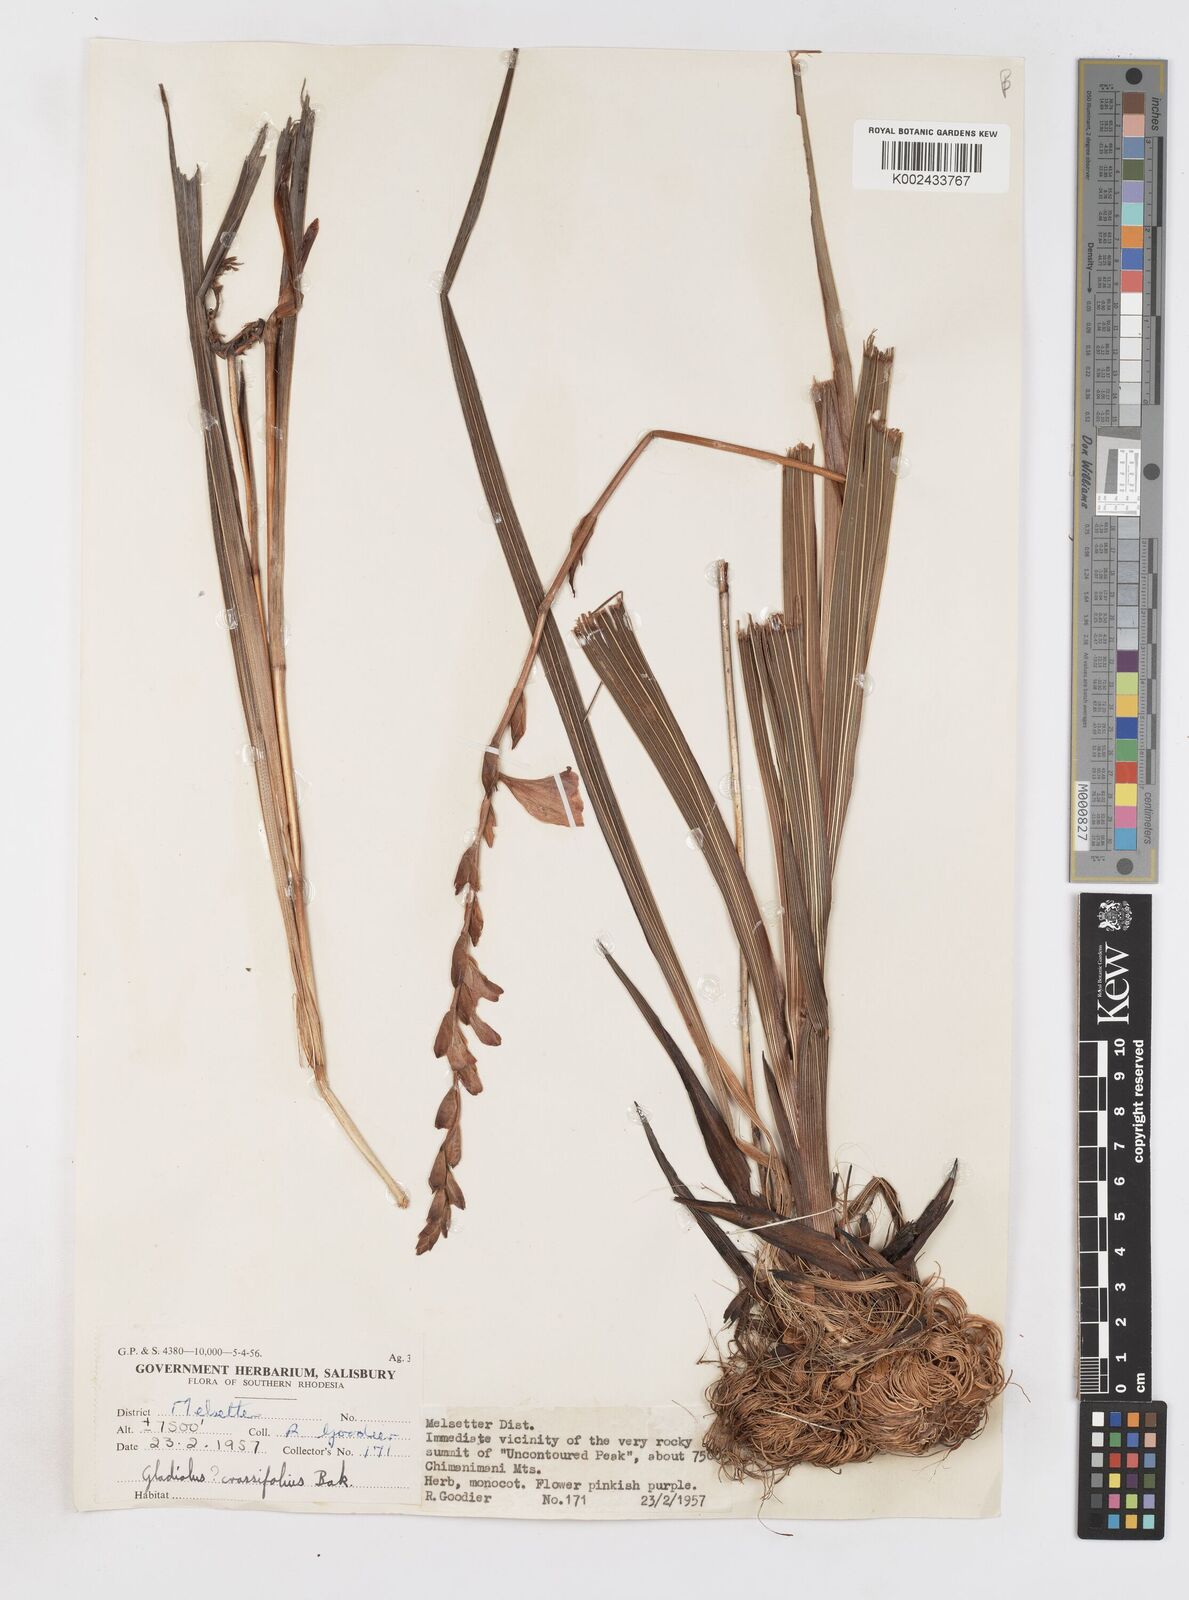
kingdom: Plantae
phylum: Tracheophyta
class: Liliopsida
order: Asparagales
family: Iridaceae
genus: Gladiolus
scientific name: Gladiolus crassifolius
